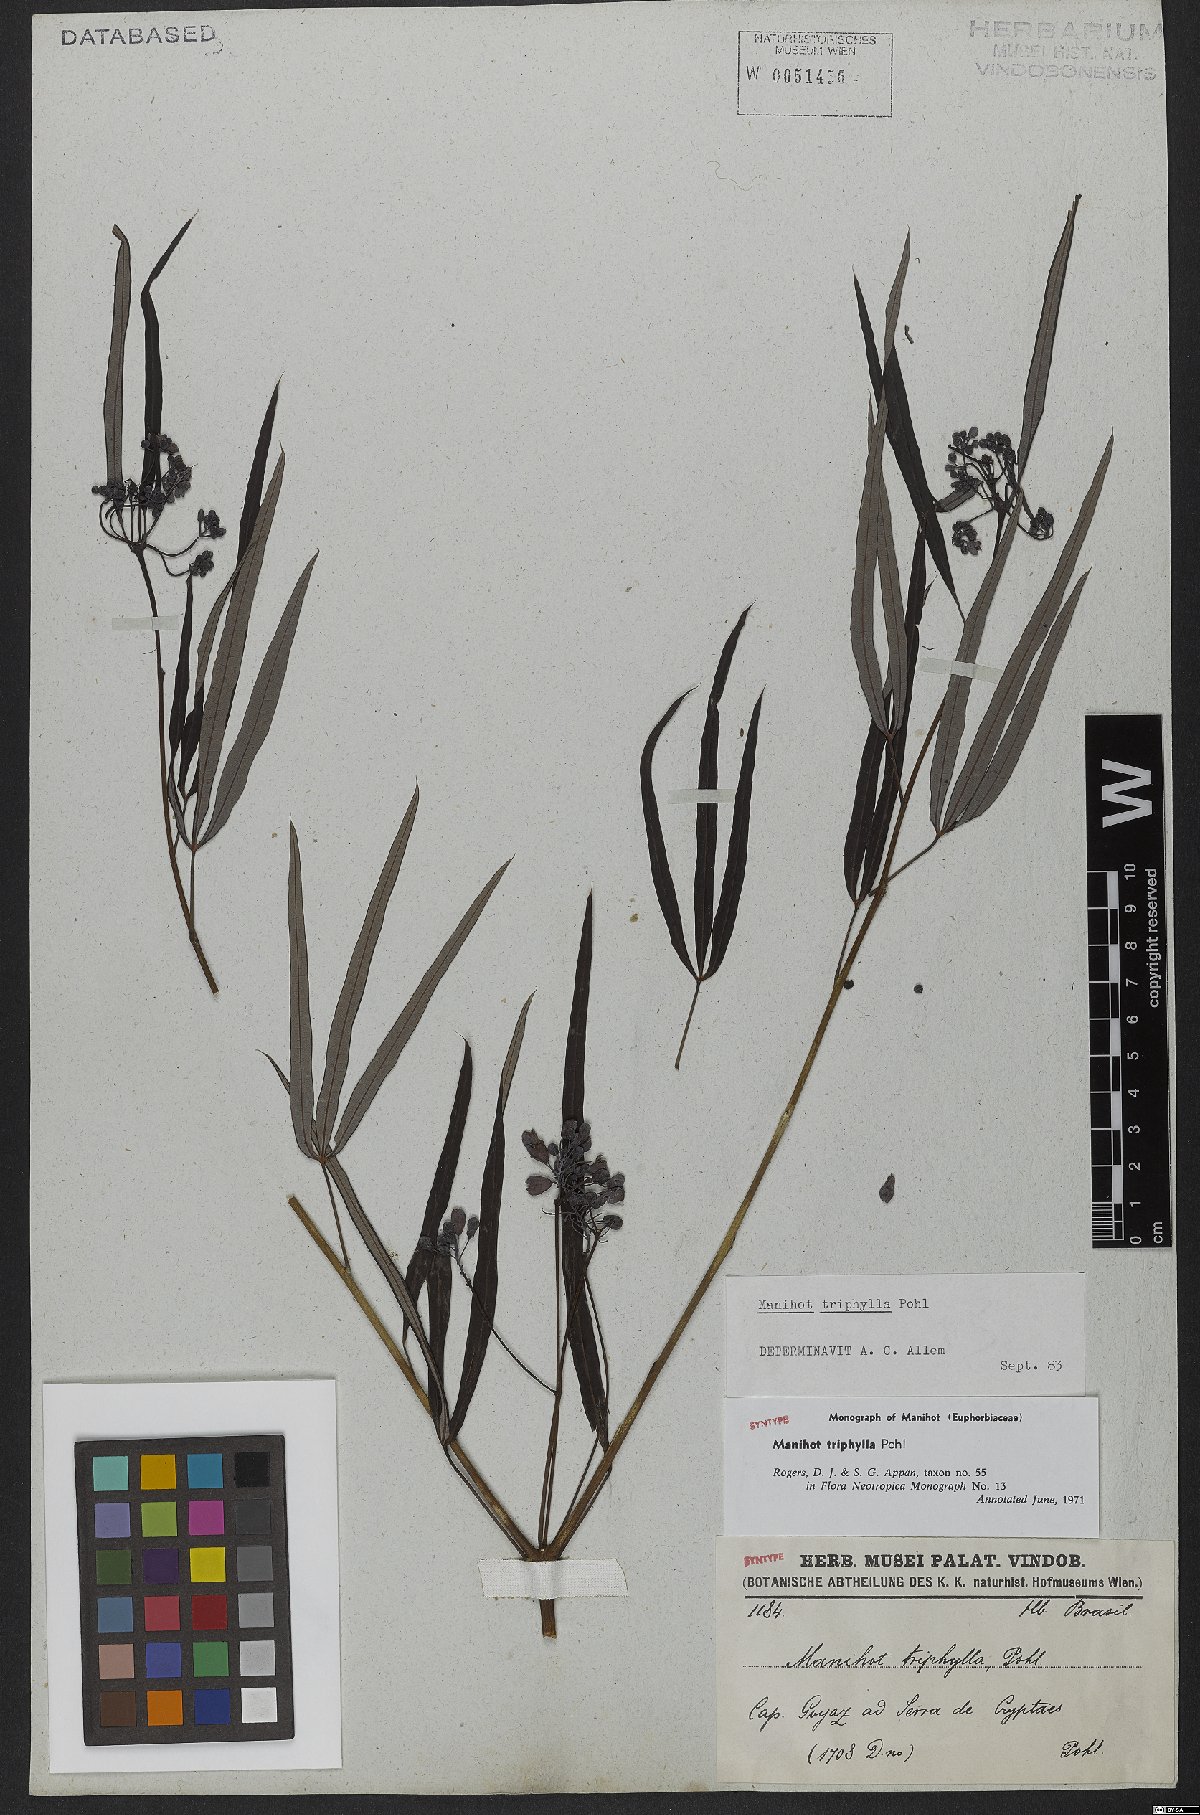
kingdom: Plantae
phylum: Tracheophyta
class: Magnoliopsida
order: Malpighiales
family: Euphorbiaceae
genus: Manihot
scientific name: Manihot triphylla
